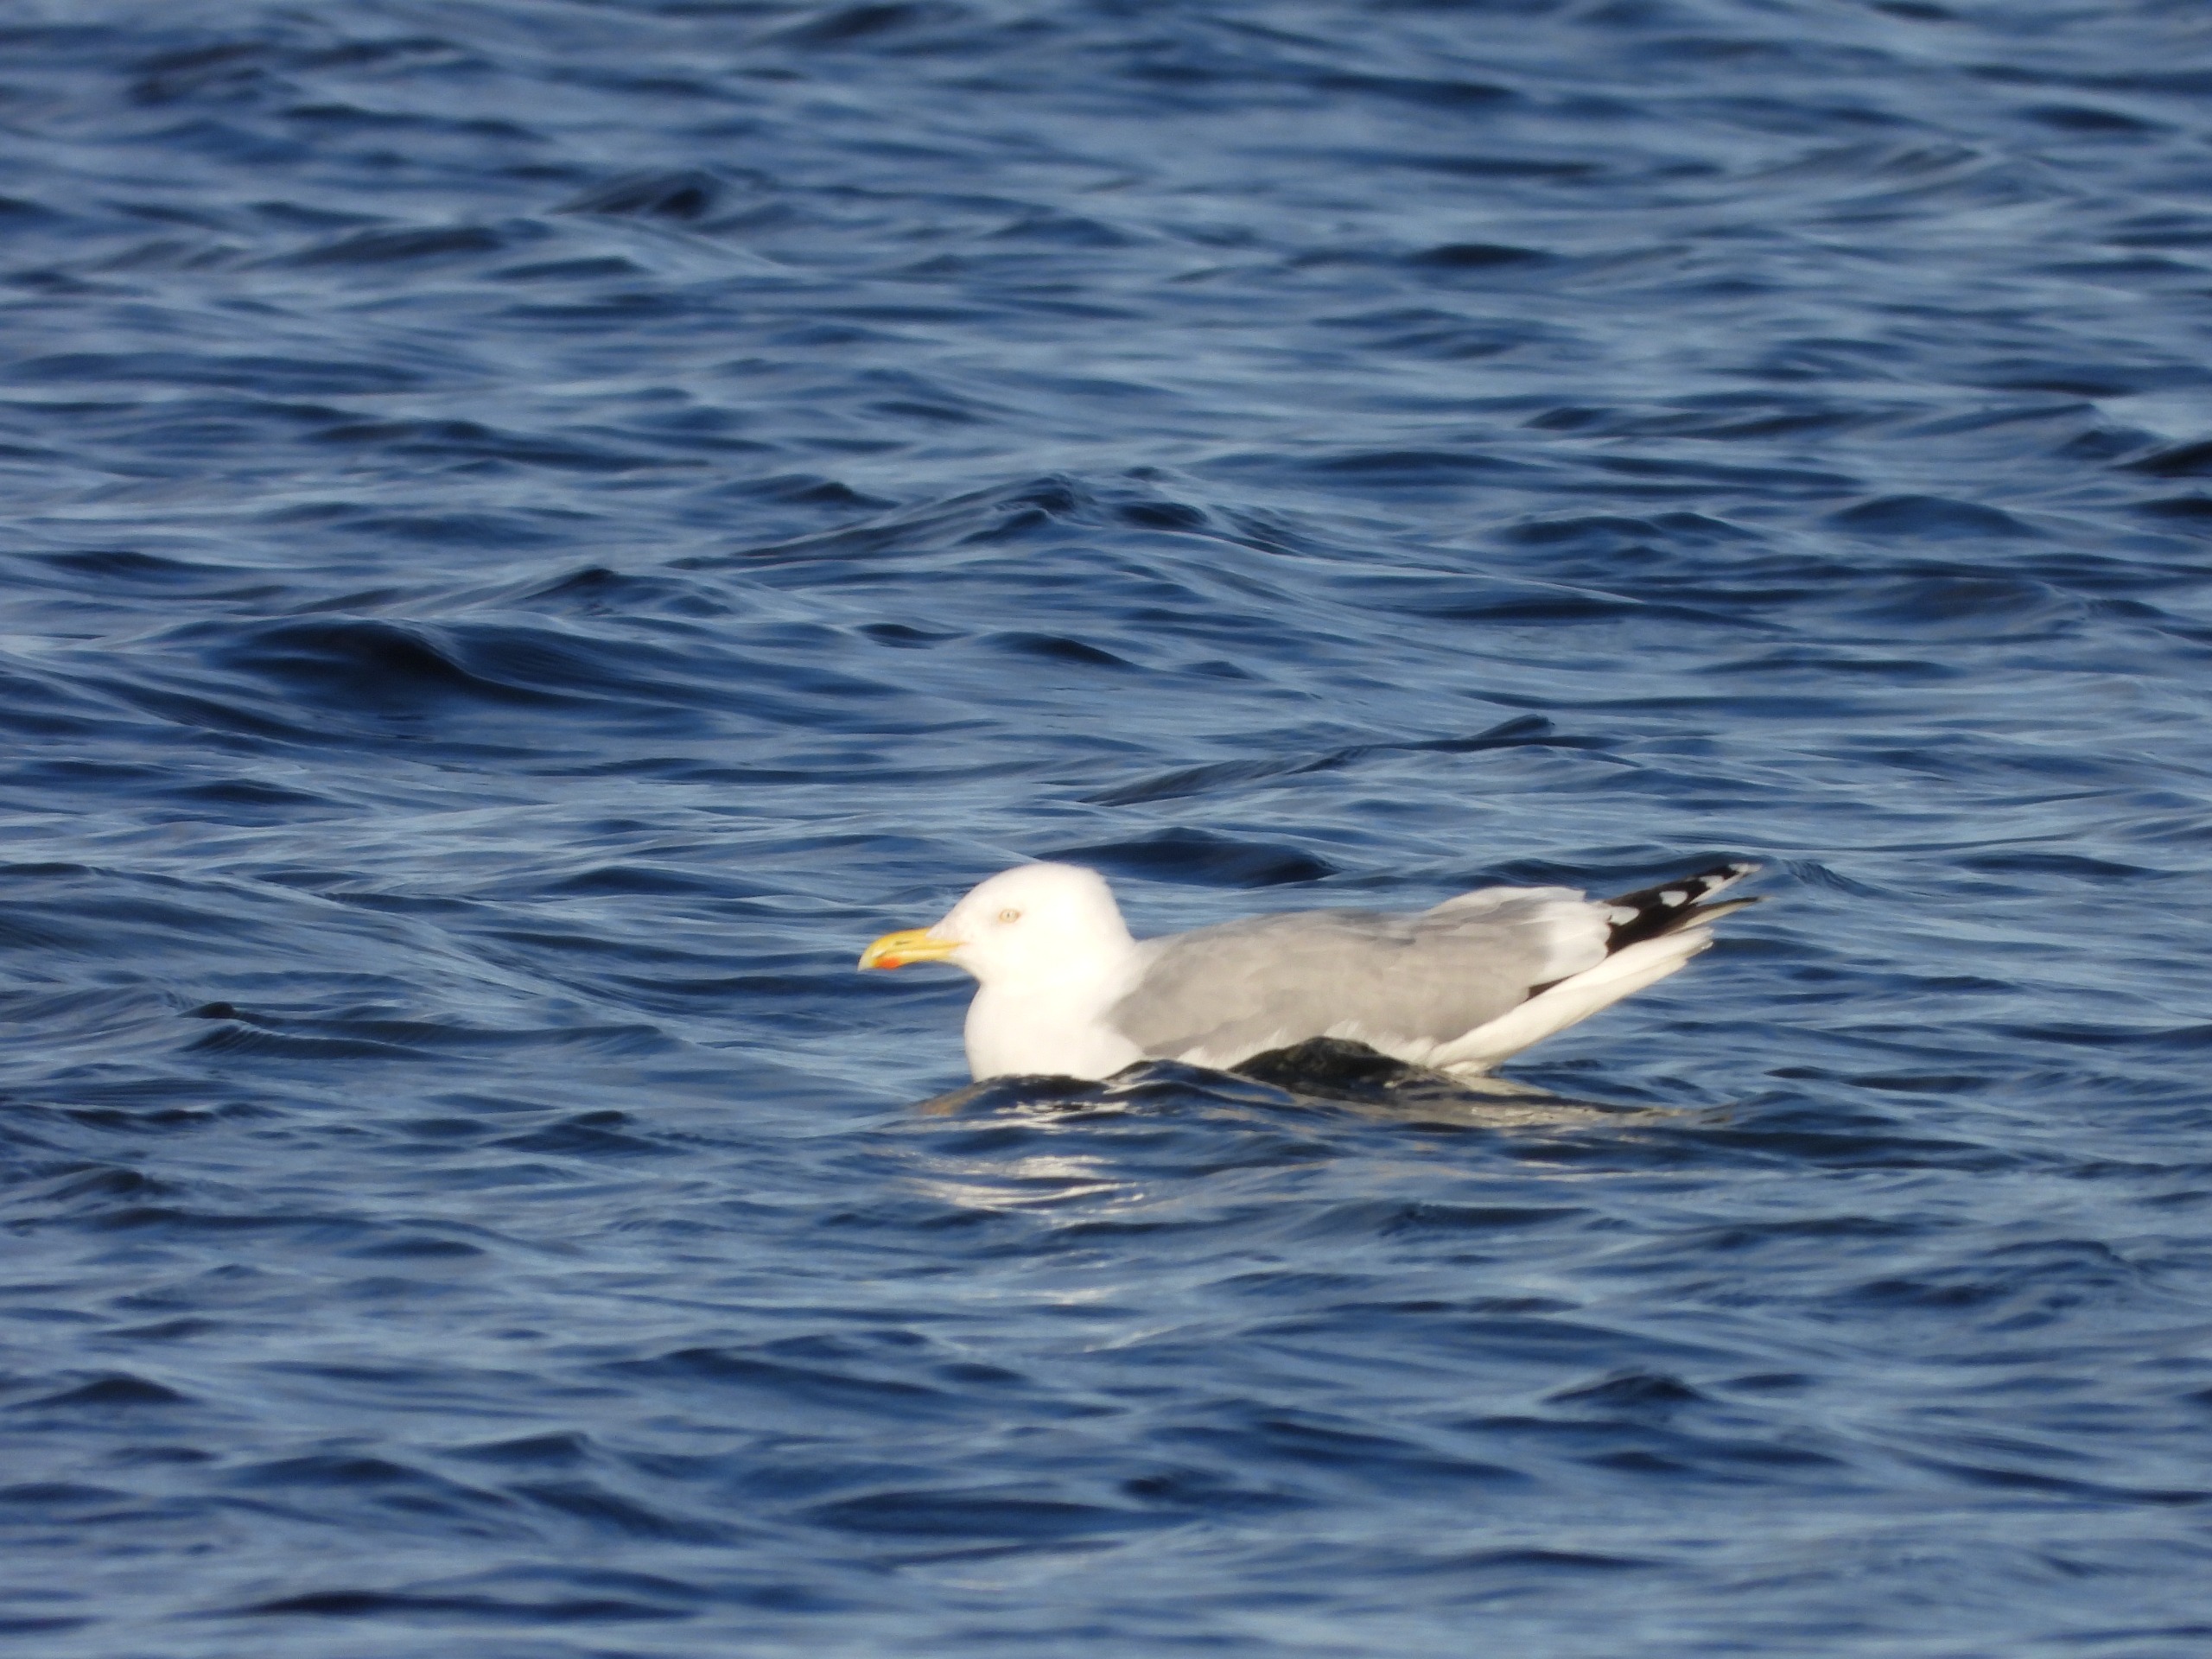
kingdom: Animalia
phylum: Chordata
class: Aves
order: Charadriiformes
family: Laridae
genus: Larus
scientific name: Larus argentatus
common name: Sølvmåge
